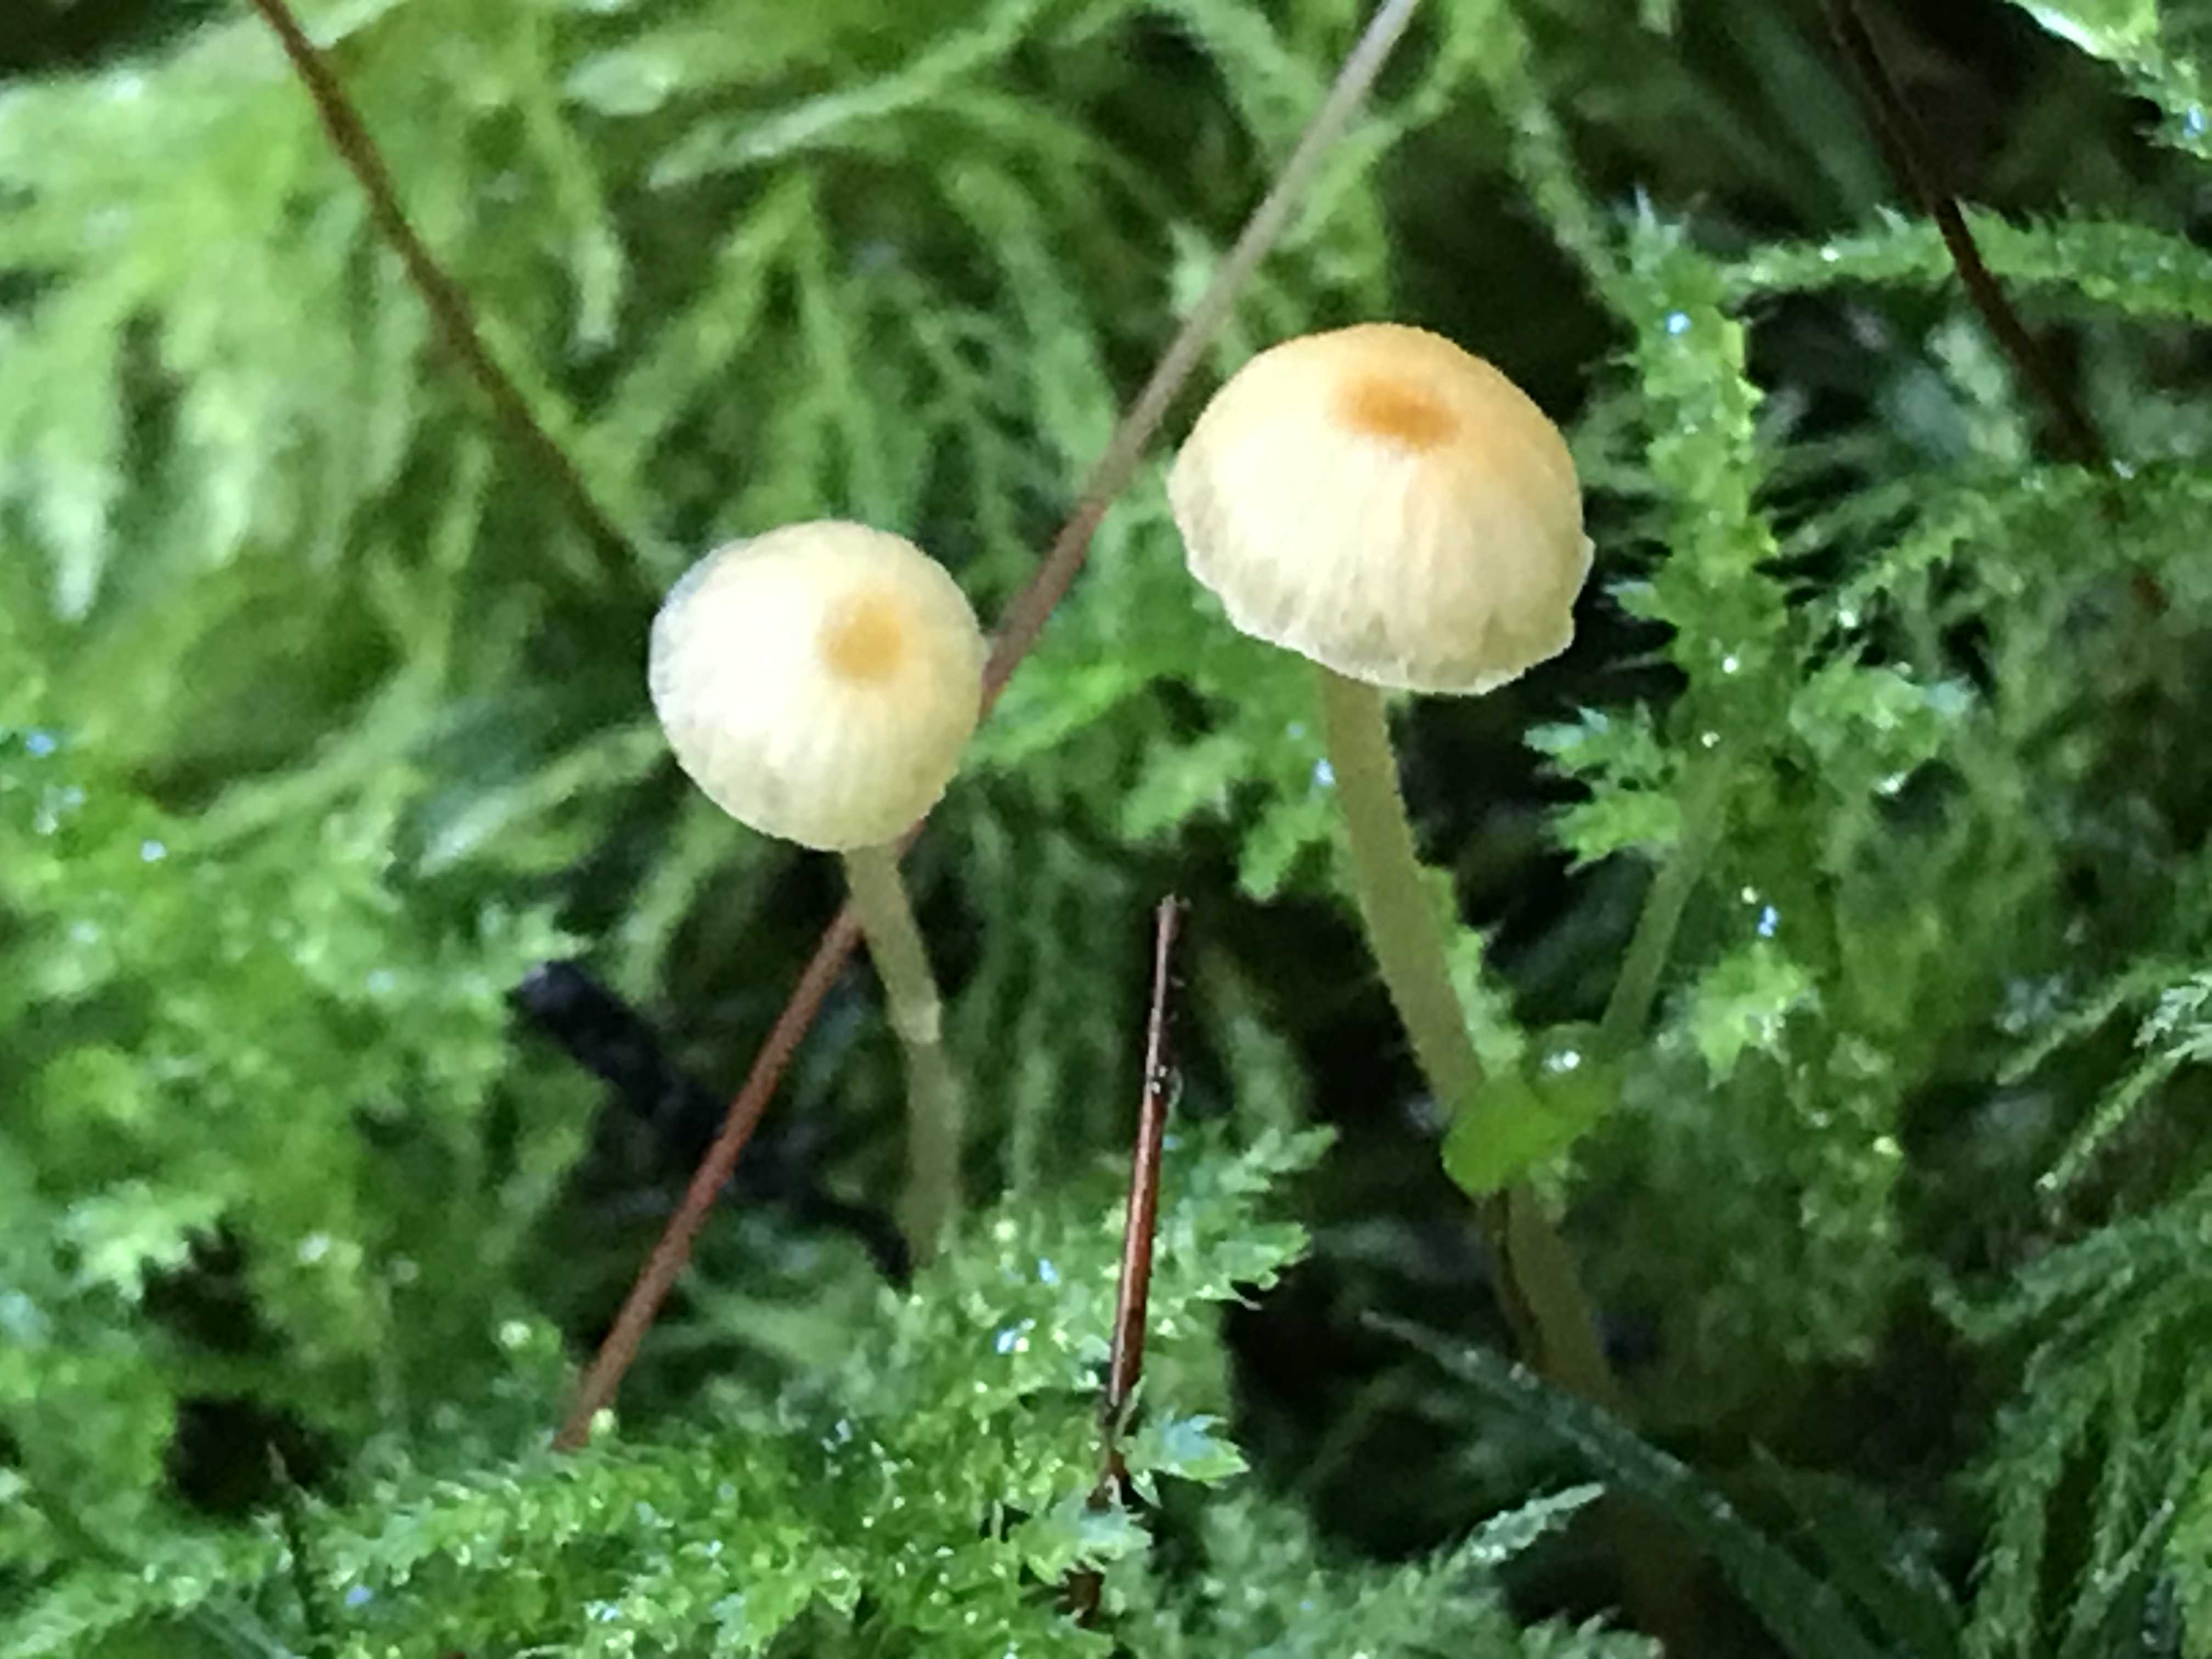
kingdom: Fungi
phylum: Basidiomycota
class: Agaricomycetes
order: Hymenochaetales
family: Rickenellaceae
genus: Rickenella
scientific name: Rickenella fibula
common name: orange mosnavlehat
